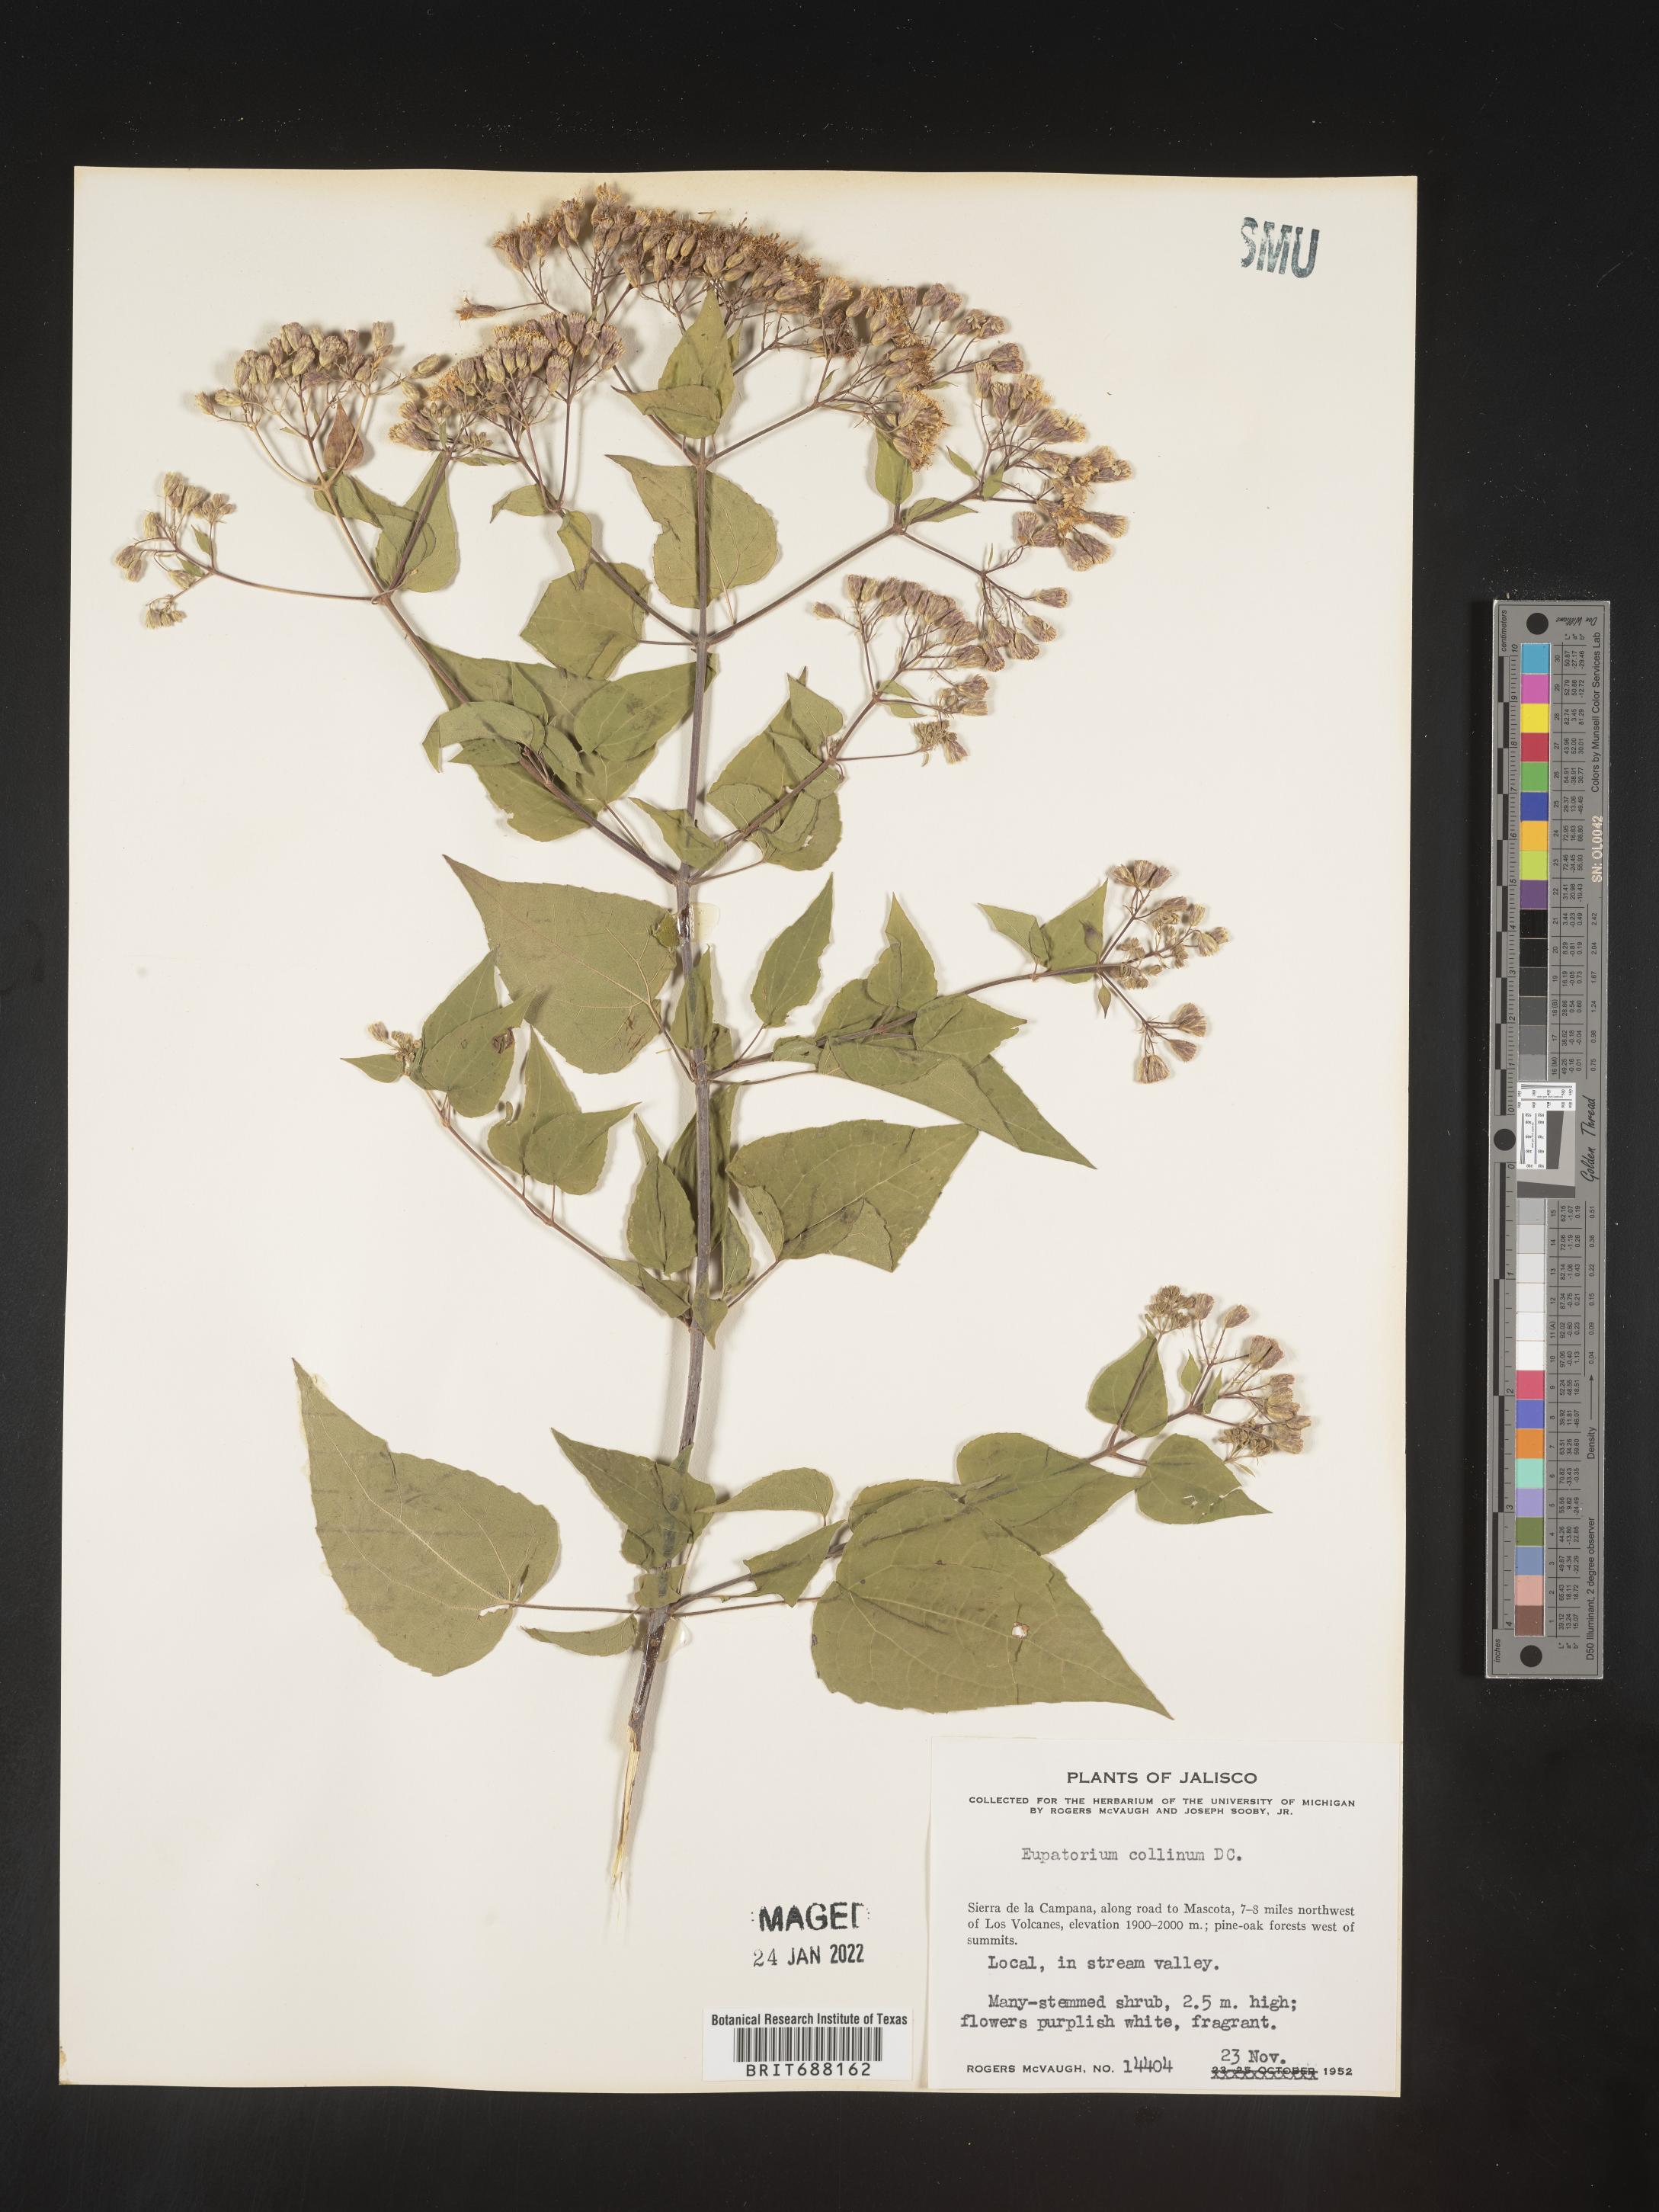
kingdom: Plantae
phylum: Tracheophyta
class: Magnoliopsida
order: Asterales
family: Asteraceae
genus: Chromolaena
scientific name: Chromolaena collina
